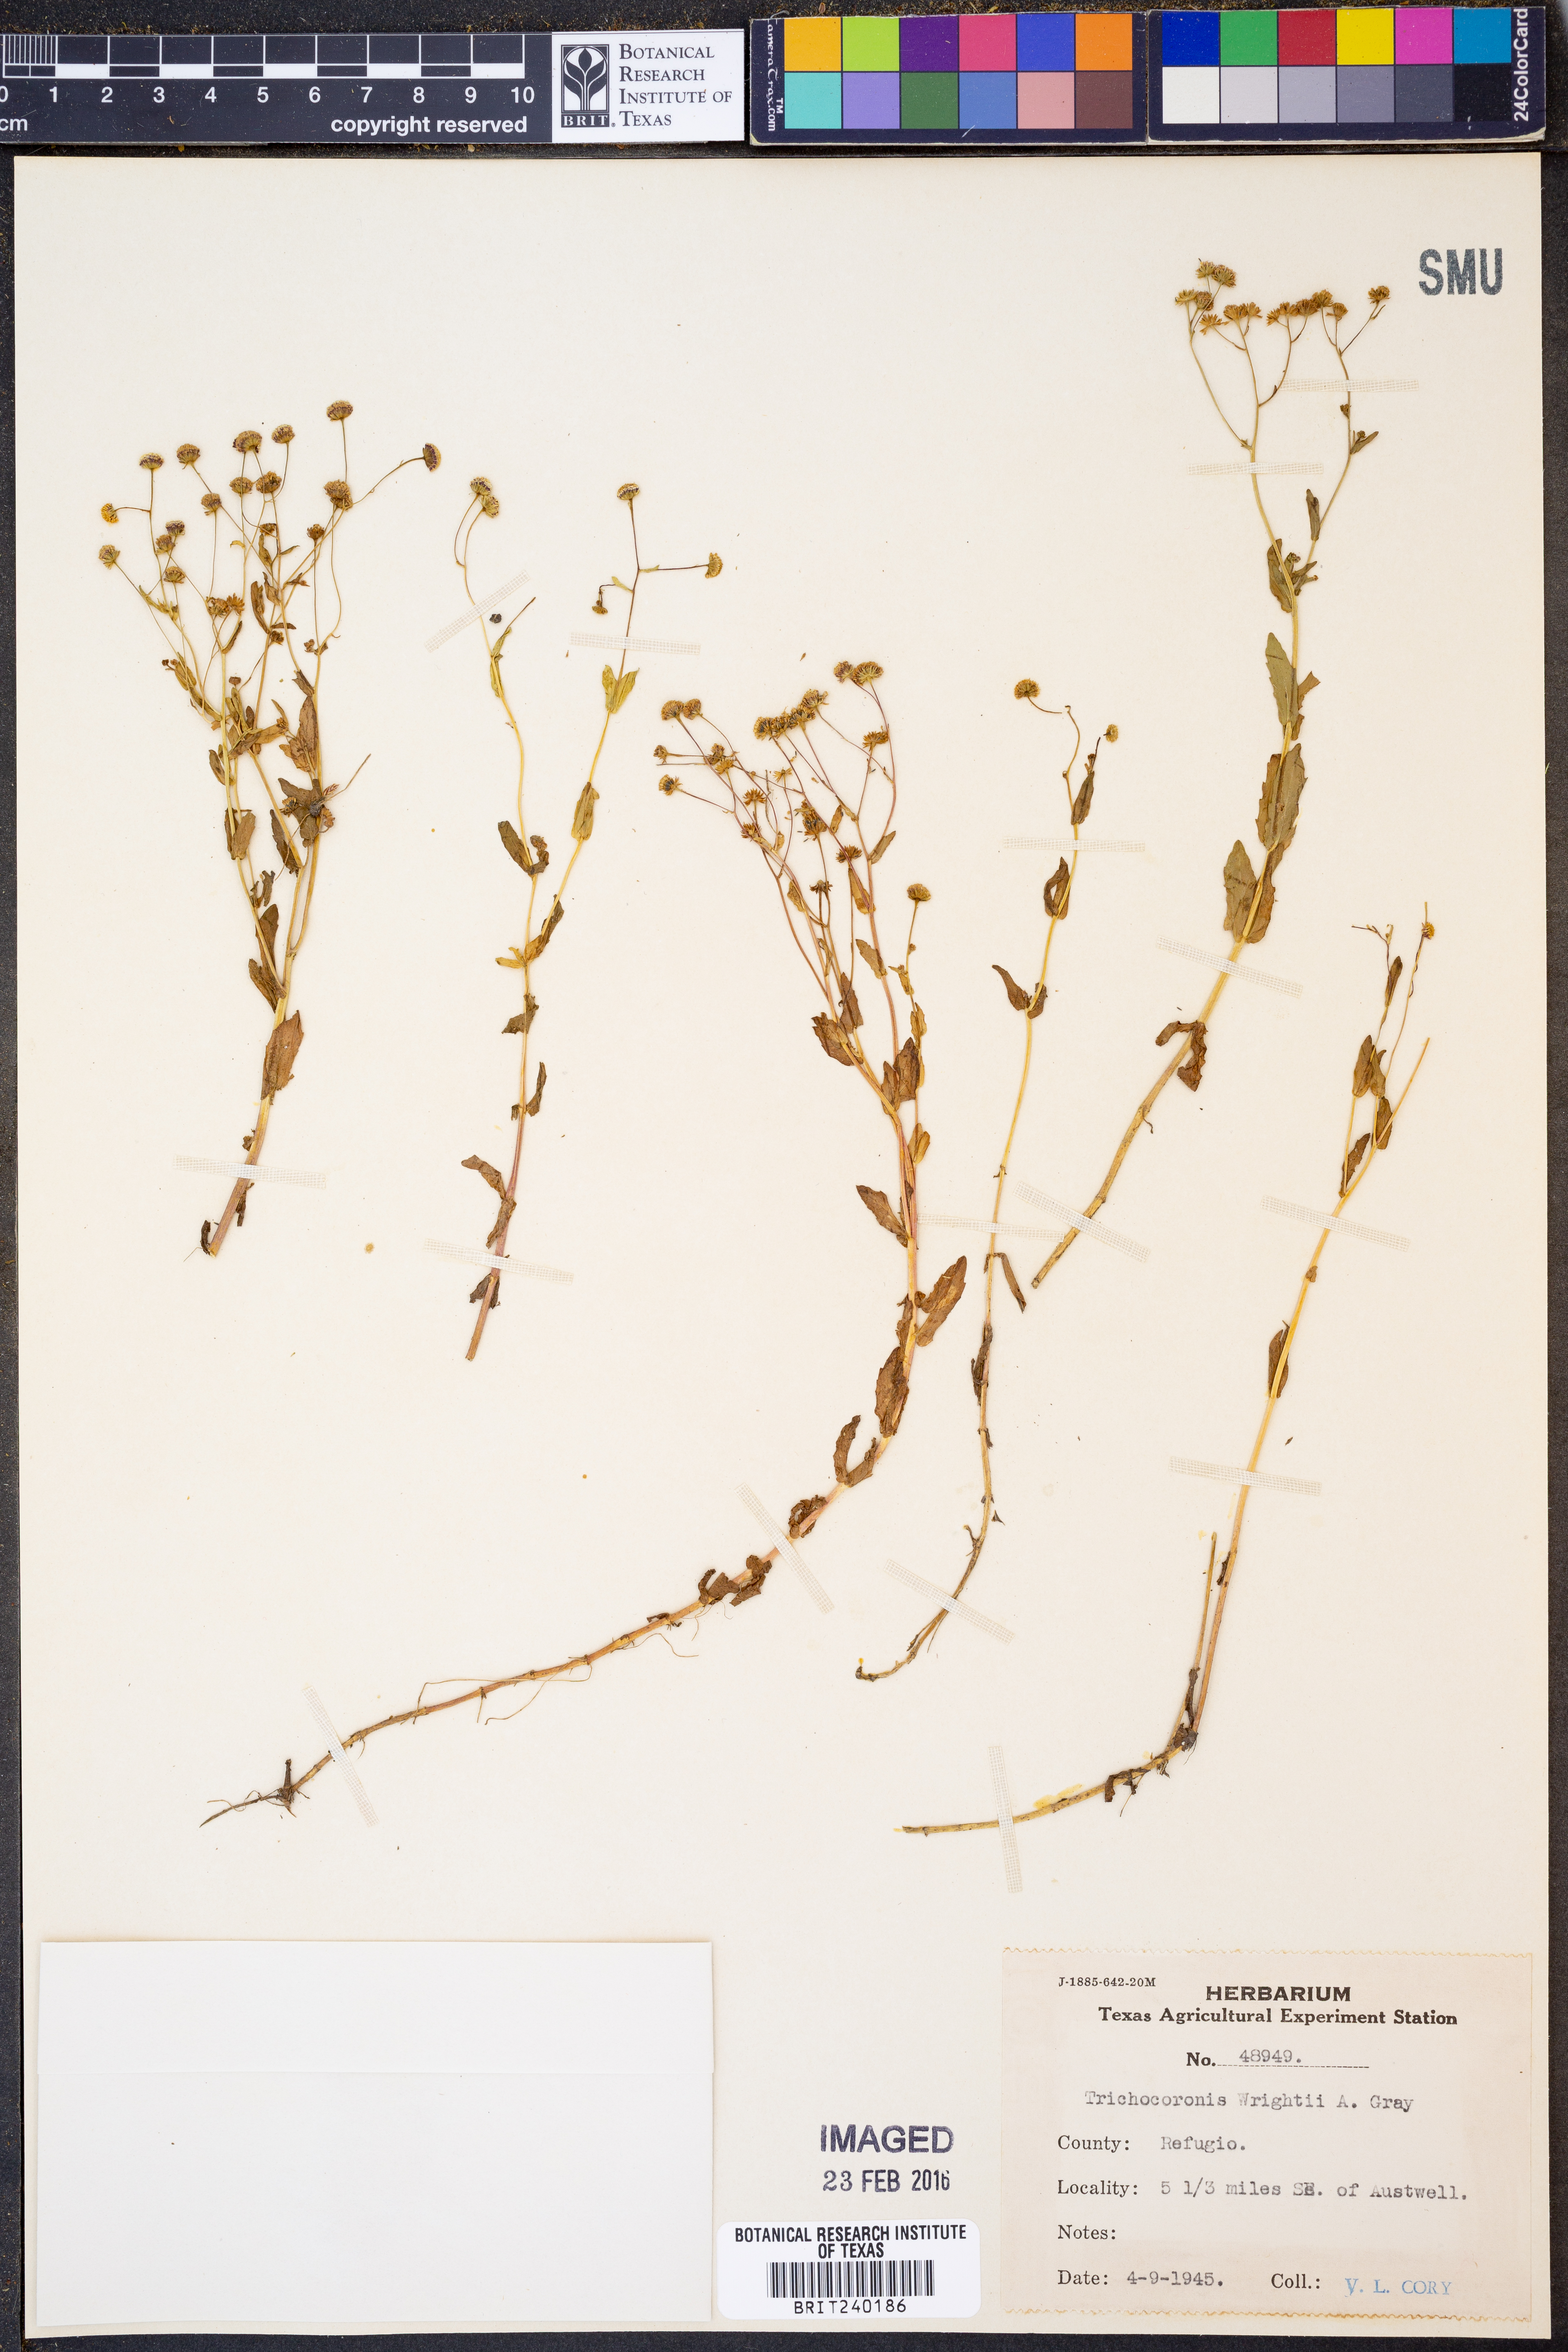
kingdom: Plantae
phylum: Tracheophyta
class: Magnoliopsida
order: Asterales
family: Asteraceae
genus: Trichocoronis
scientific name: Trichocoronis wrightii
